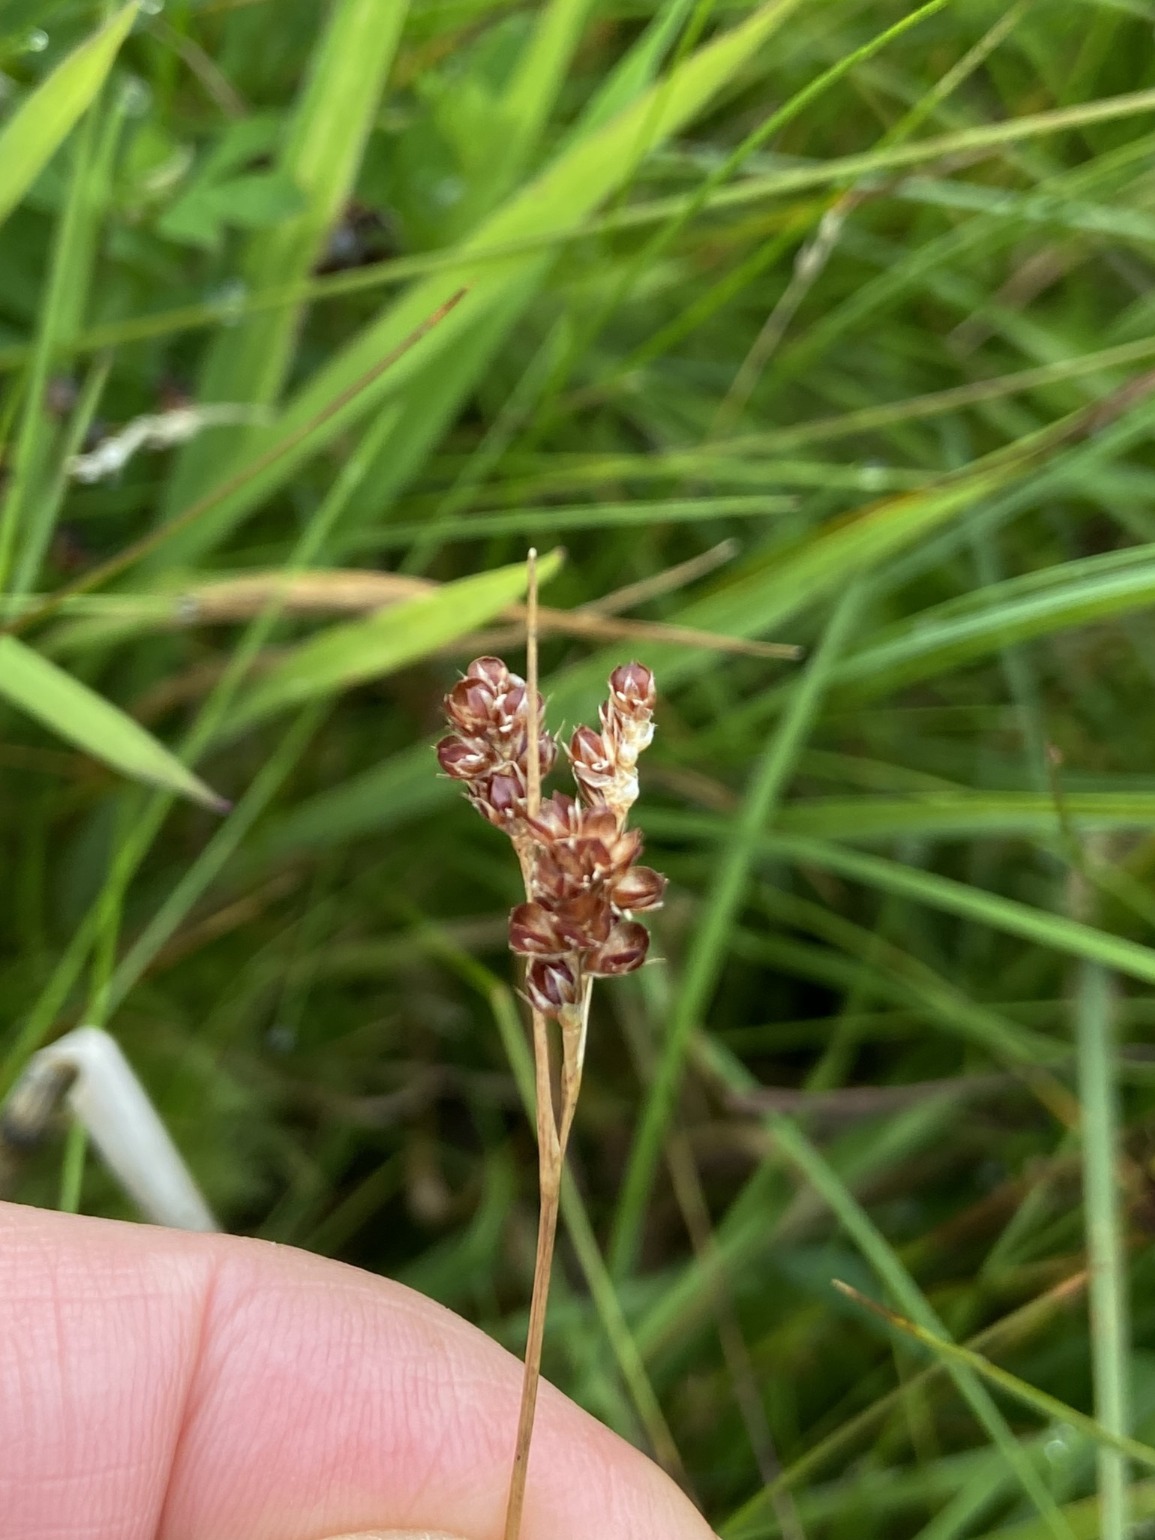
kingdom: Plantae
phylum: Tracheophyta
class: Liliopsida
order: Poales
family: Juncaceae
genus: Luzula
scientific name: Luzula multiflora
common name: Mangeblomstret frytle
